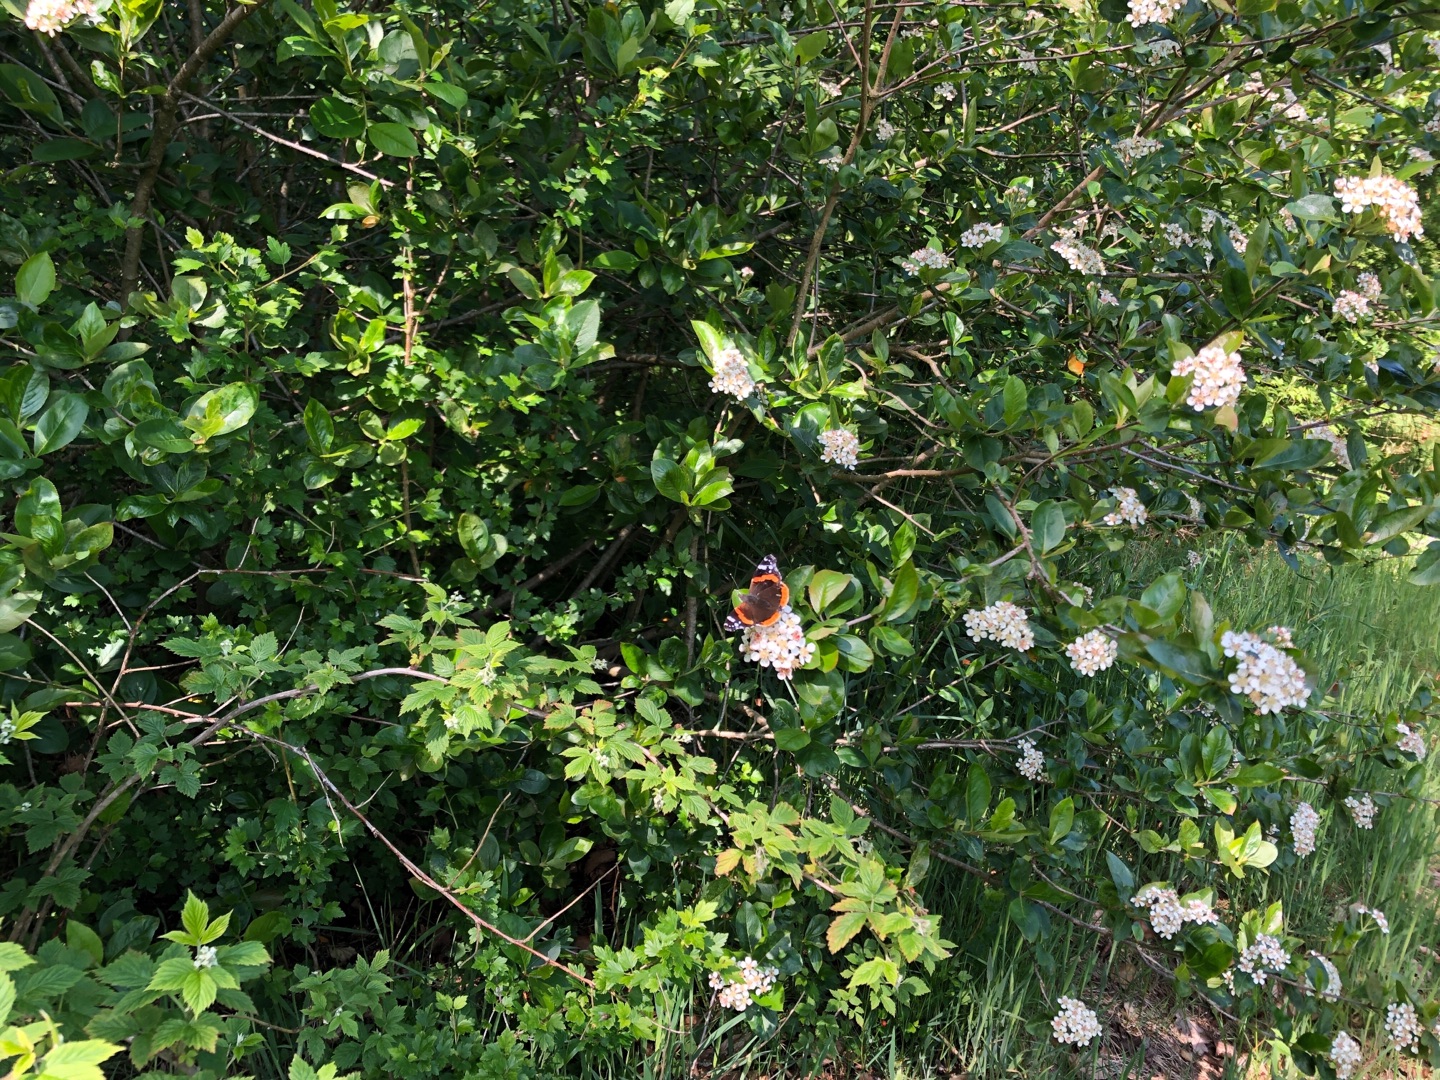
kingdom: Animalia
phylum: Arthropoda
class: Insecta
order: Lepidoptera
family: Nymphalidae
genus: Vanessa
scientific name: Vanessa atalanta
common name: Admiral
